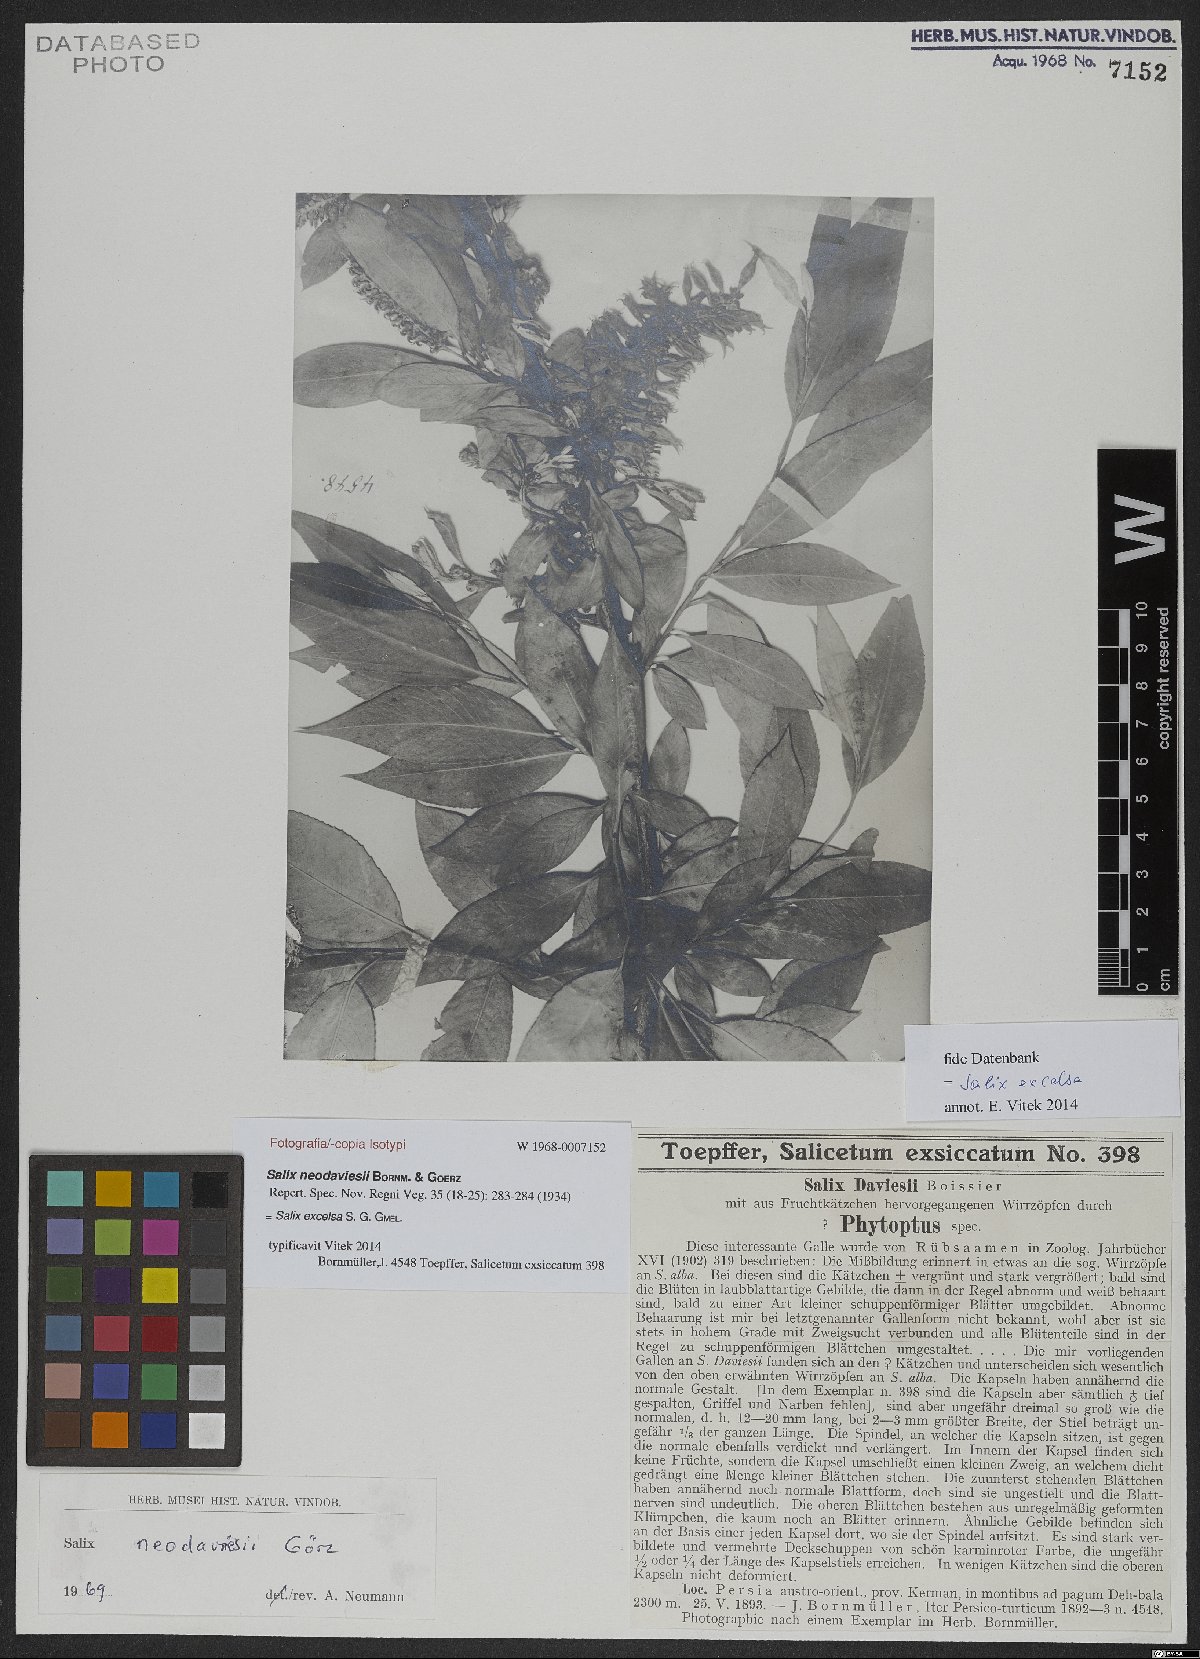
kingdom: Plantae
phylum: Tracheophyta
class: Magnoliopsida
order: Malpighiales
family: Salicaceae
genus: Salix
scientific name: Salix excelsa
